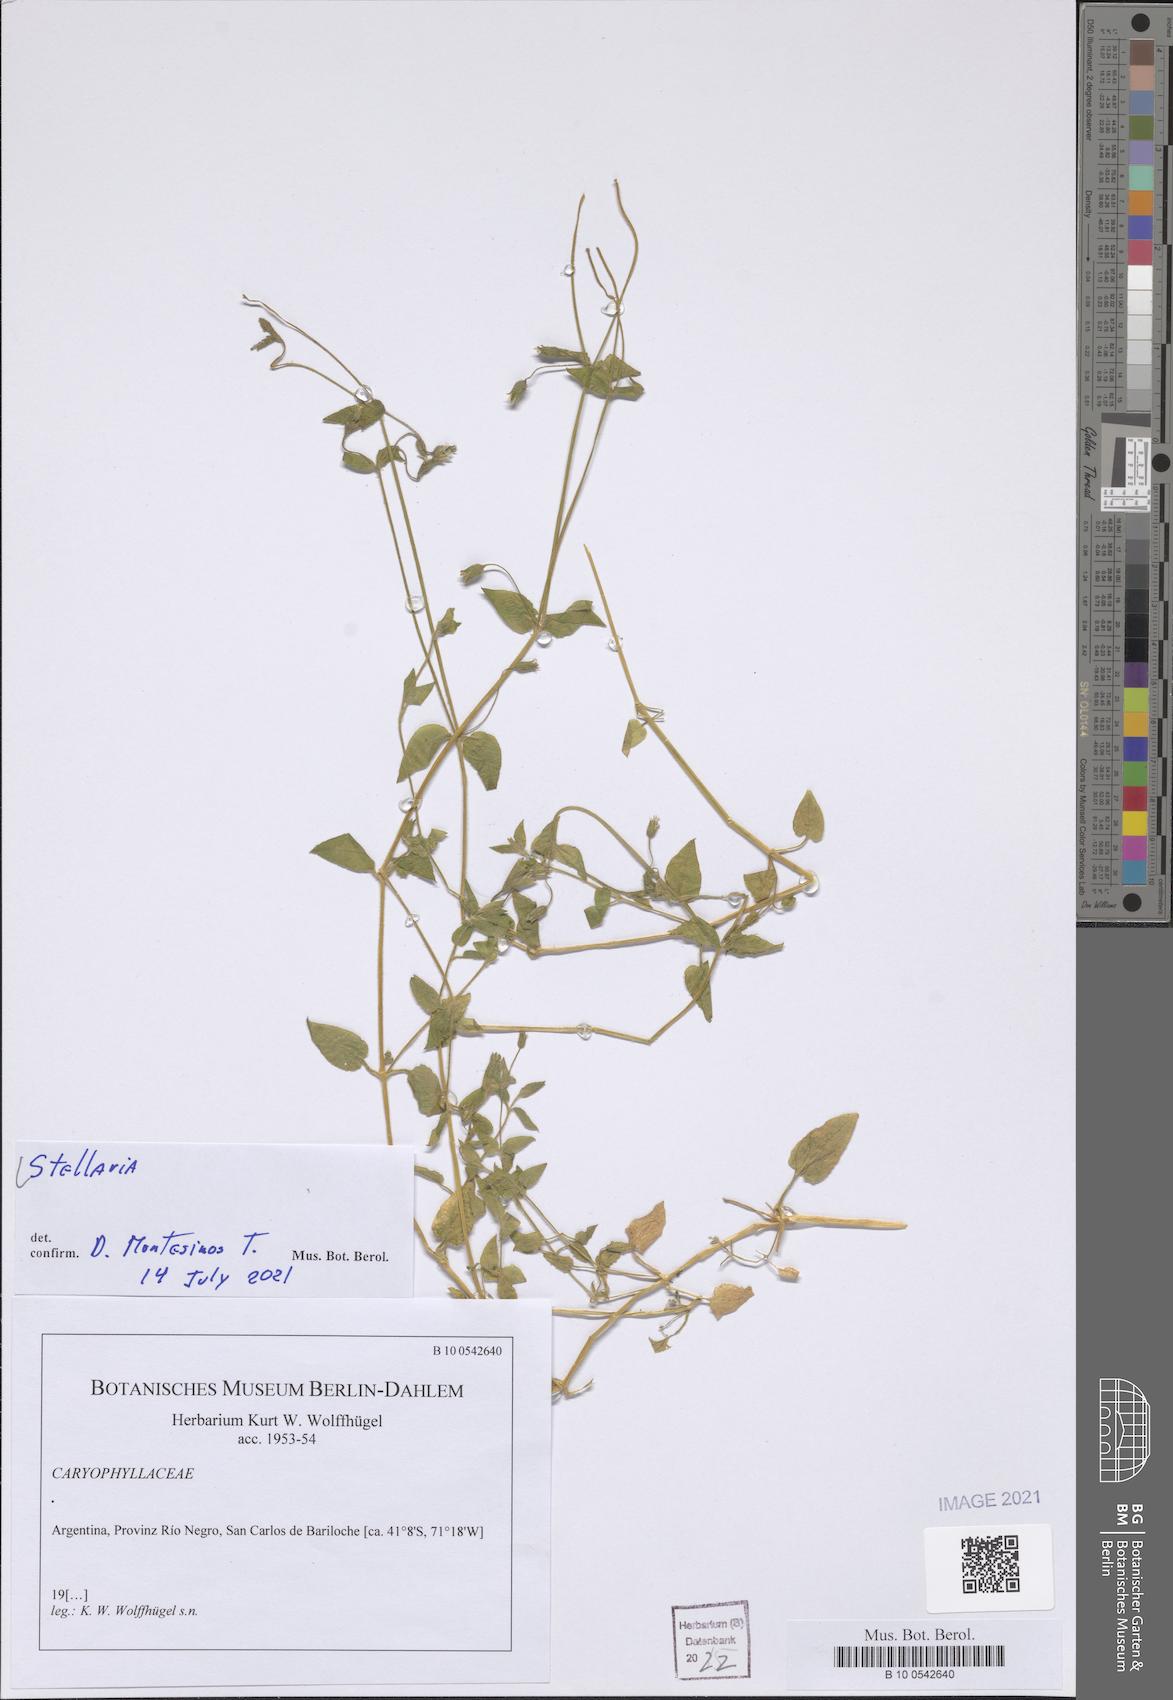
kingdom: Plantae
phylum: Tracheophyta
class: Magnoliopsida
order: Caryophyllales
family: Caryophyllaceae
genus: Stellaria
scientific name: Stellaria
